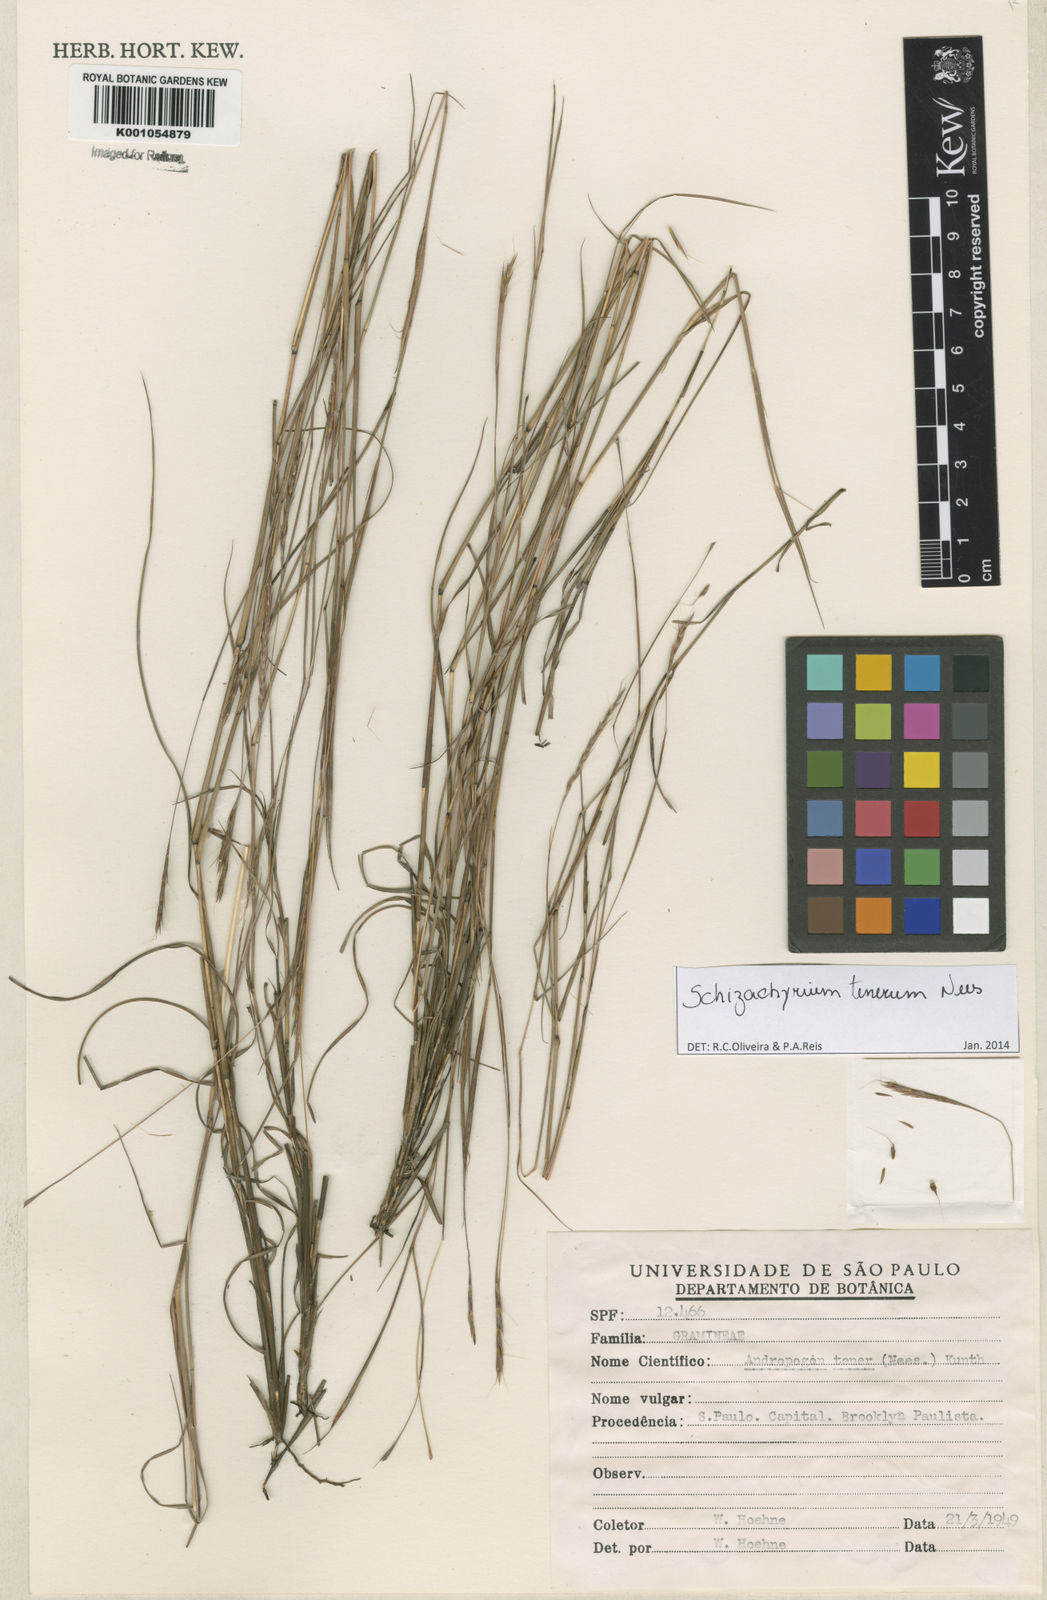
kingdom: Plantae
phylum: Tracheophyta
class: Liliopsida
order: Poales
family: Poaceae
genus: Andropogon
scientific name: Andropogon tener
